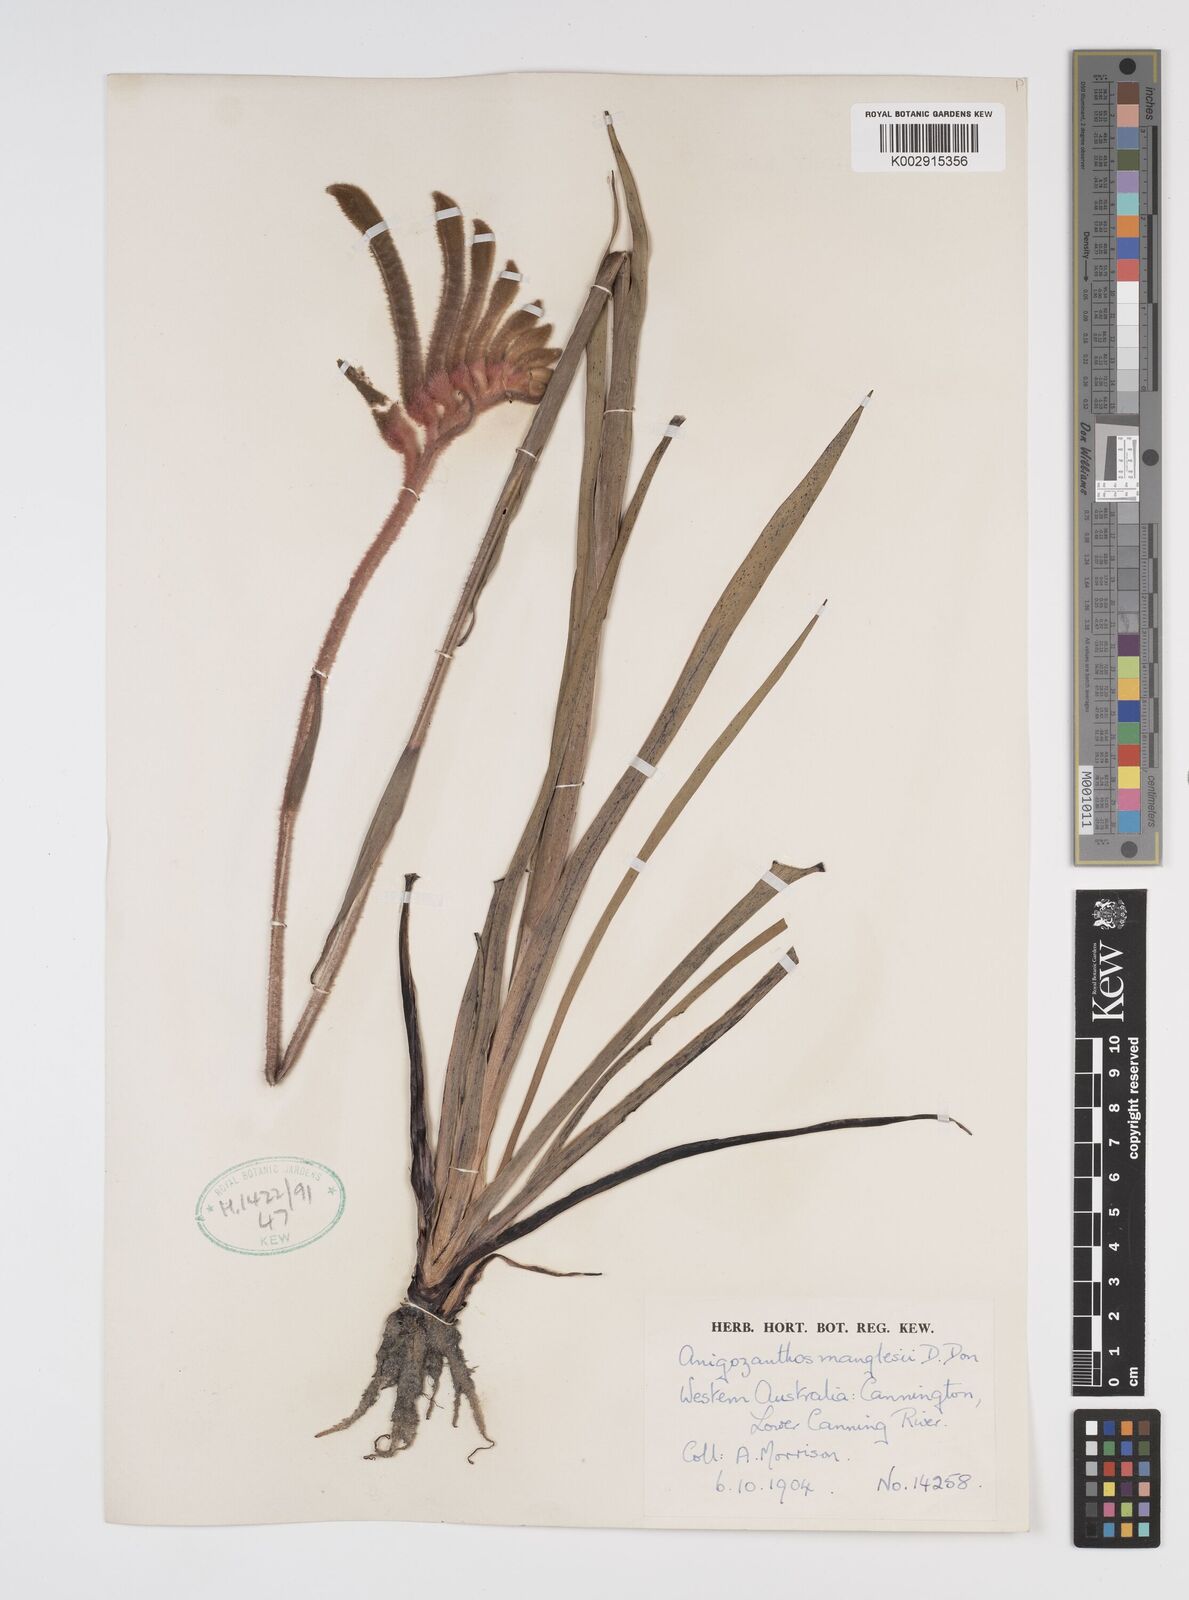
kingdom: Plantae
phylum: Tracheophyta
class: Liliopsida
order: Commelinales
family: Haemodoraceae
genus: Anigozanthos
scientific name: Anigozanthos manglesii
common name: Mangles's kangaroo-paw
